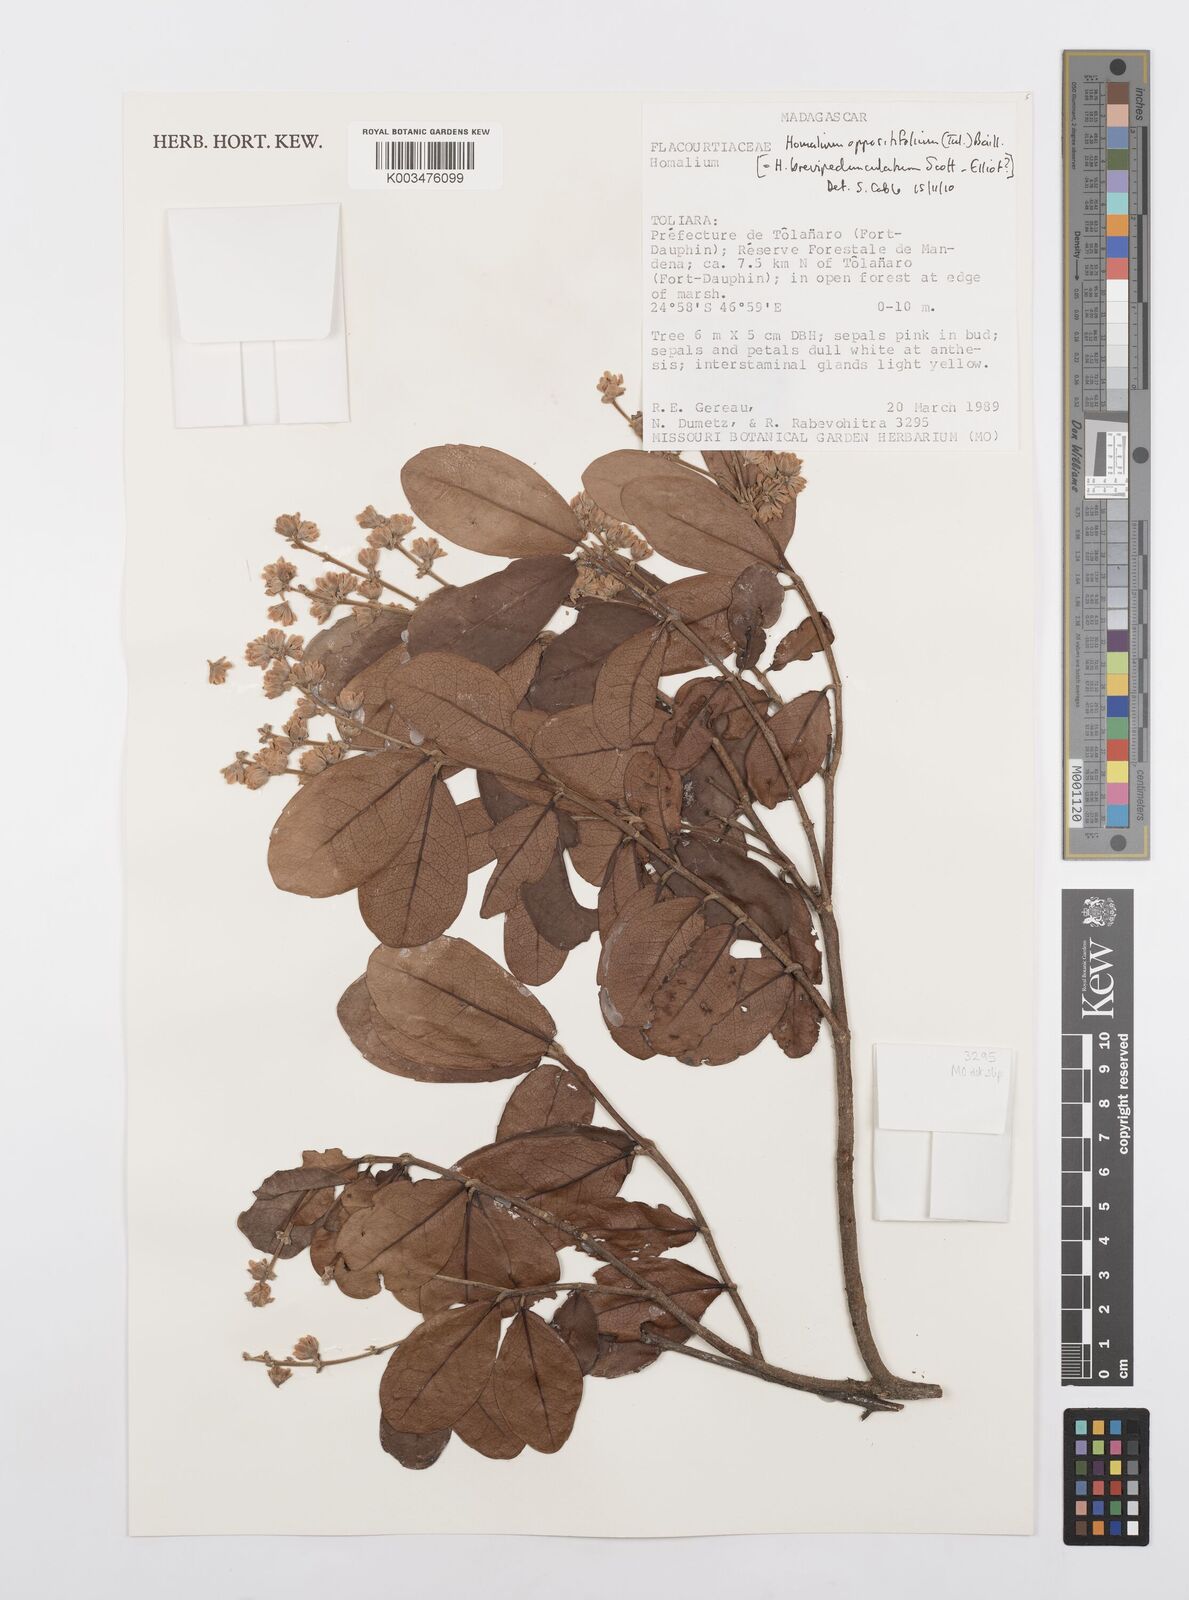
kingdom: Plantae
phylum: Tracheophyta
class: Magnoliopsida
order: Malpighiales
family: Salicaceae
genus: Homalium
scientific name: Homalium oppositifolium
